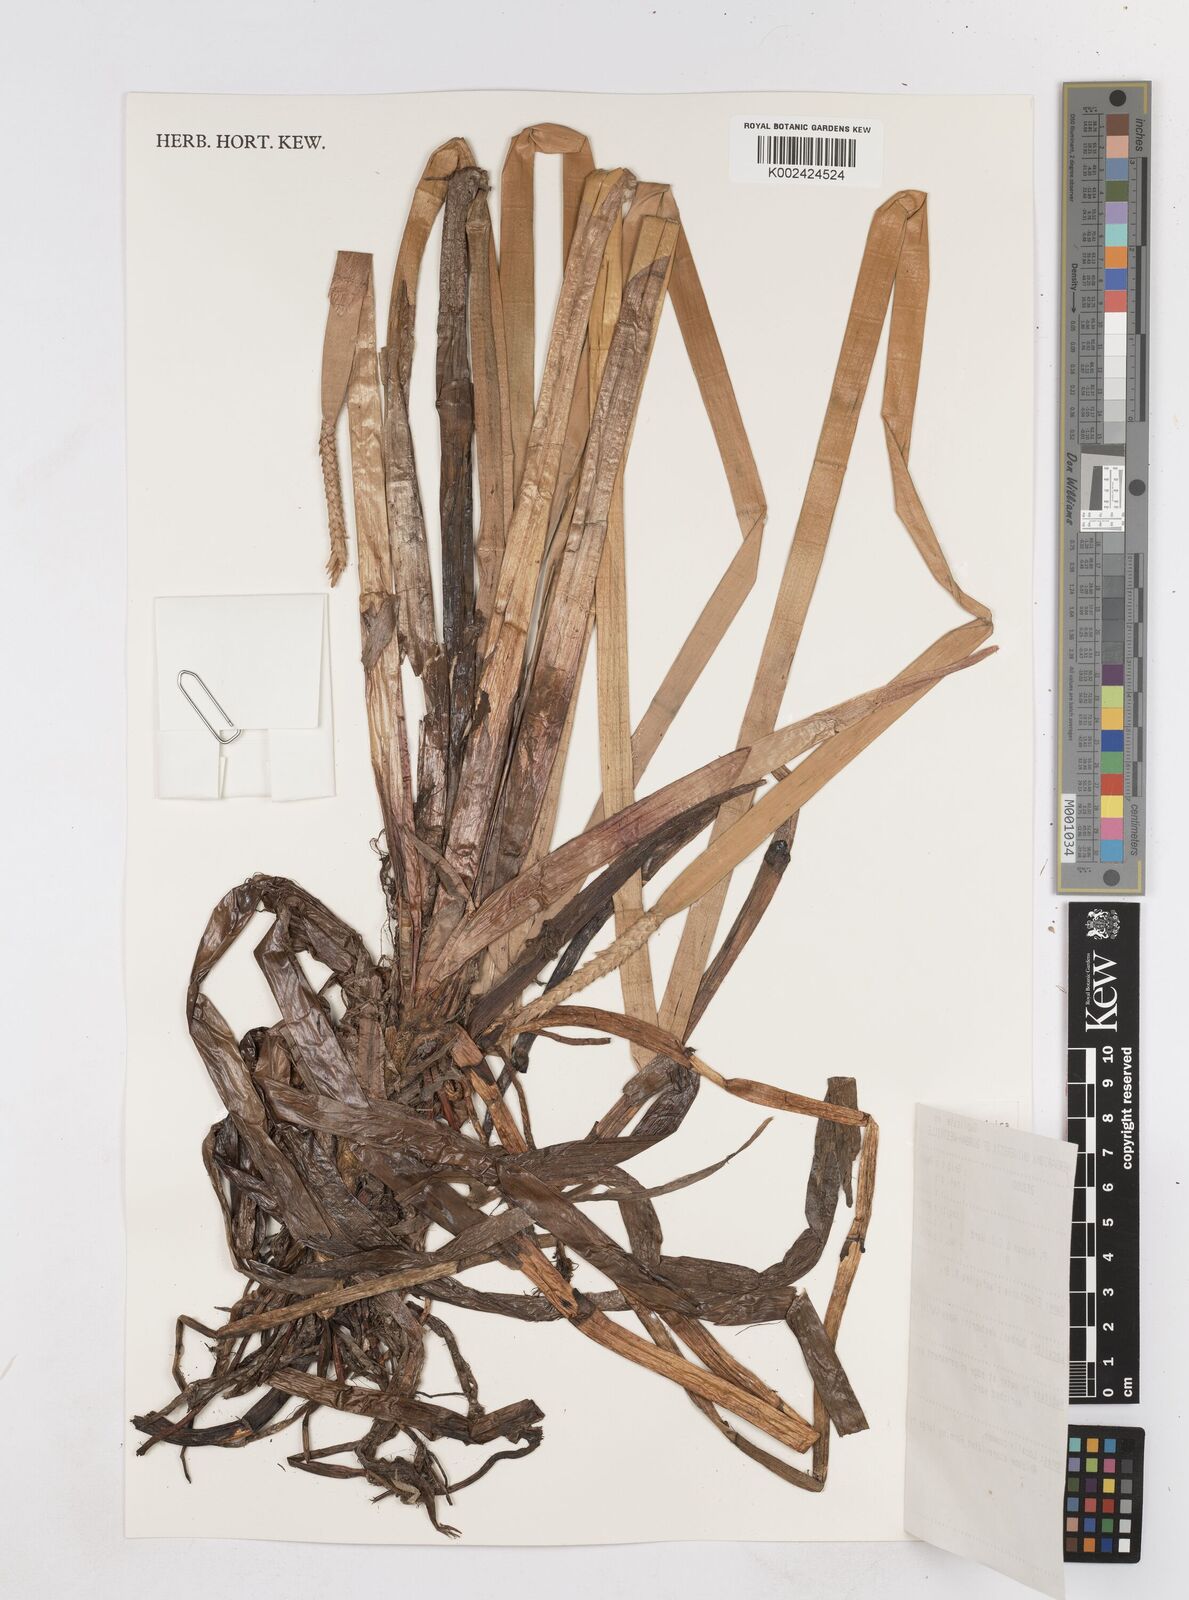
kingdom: Plantae
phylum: Tracheophyta
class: Liliopsida
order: Poales
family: Cyperaceae
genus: Eleocharis
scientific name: Eleocharis dulcis
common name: Chinese water chestnut
